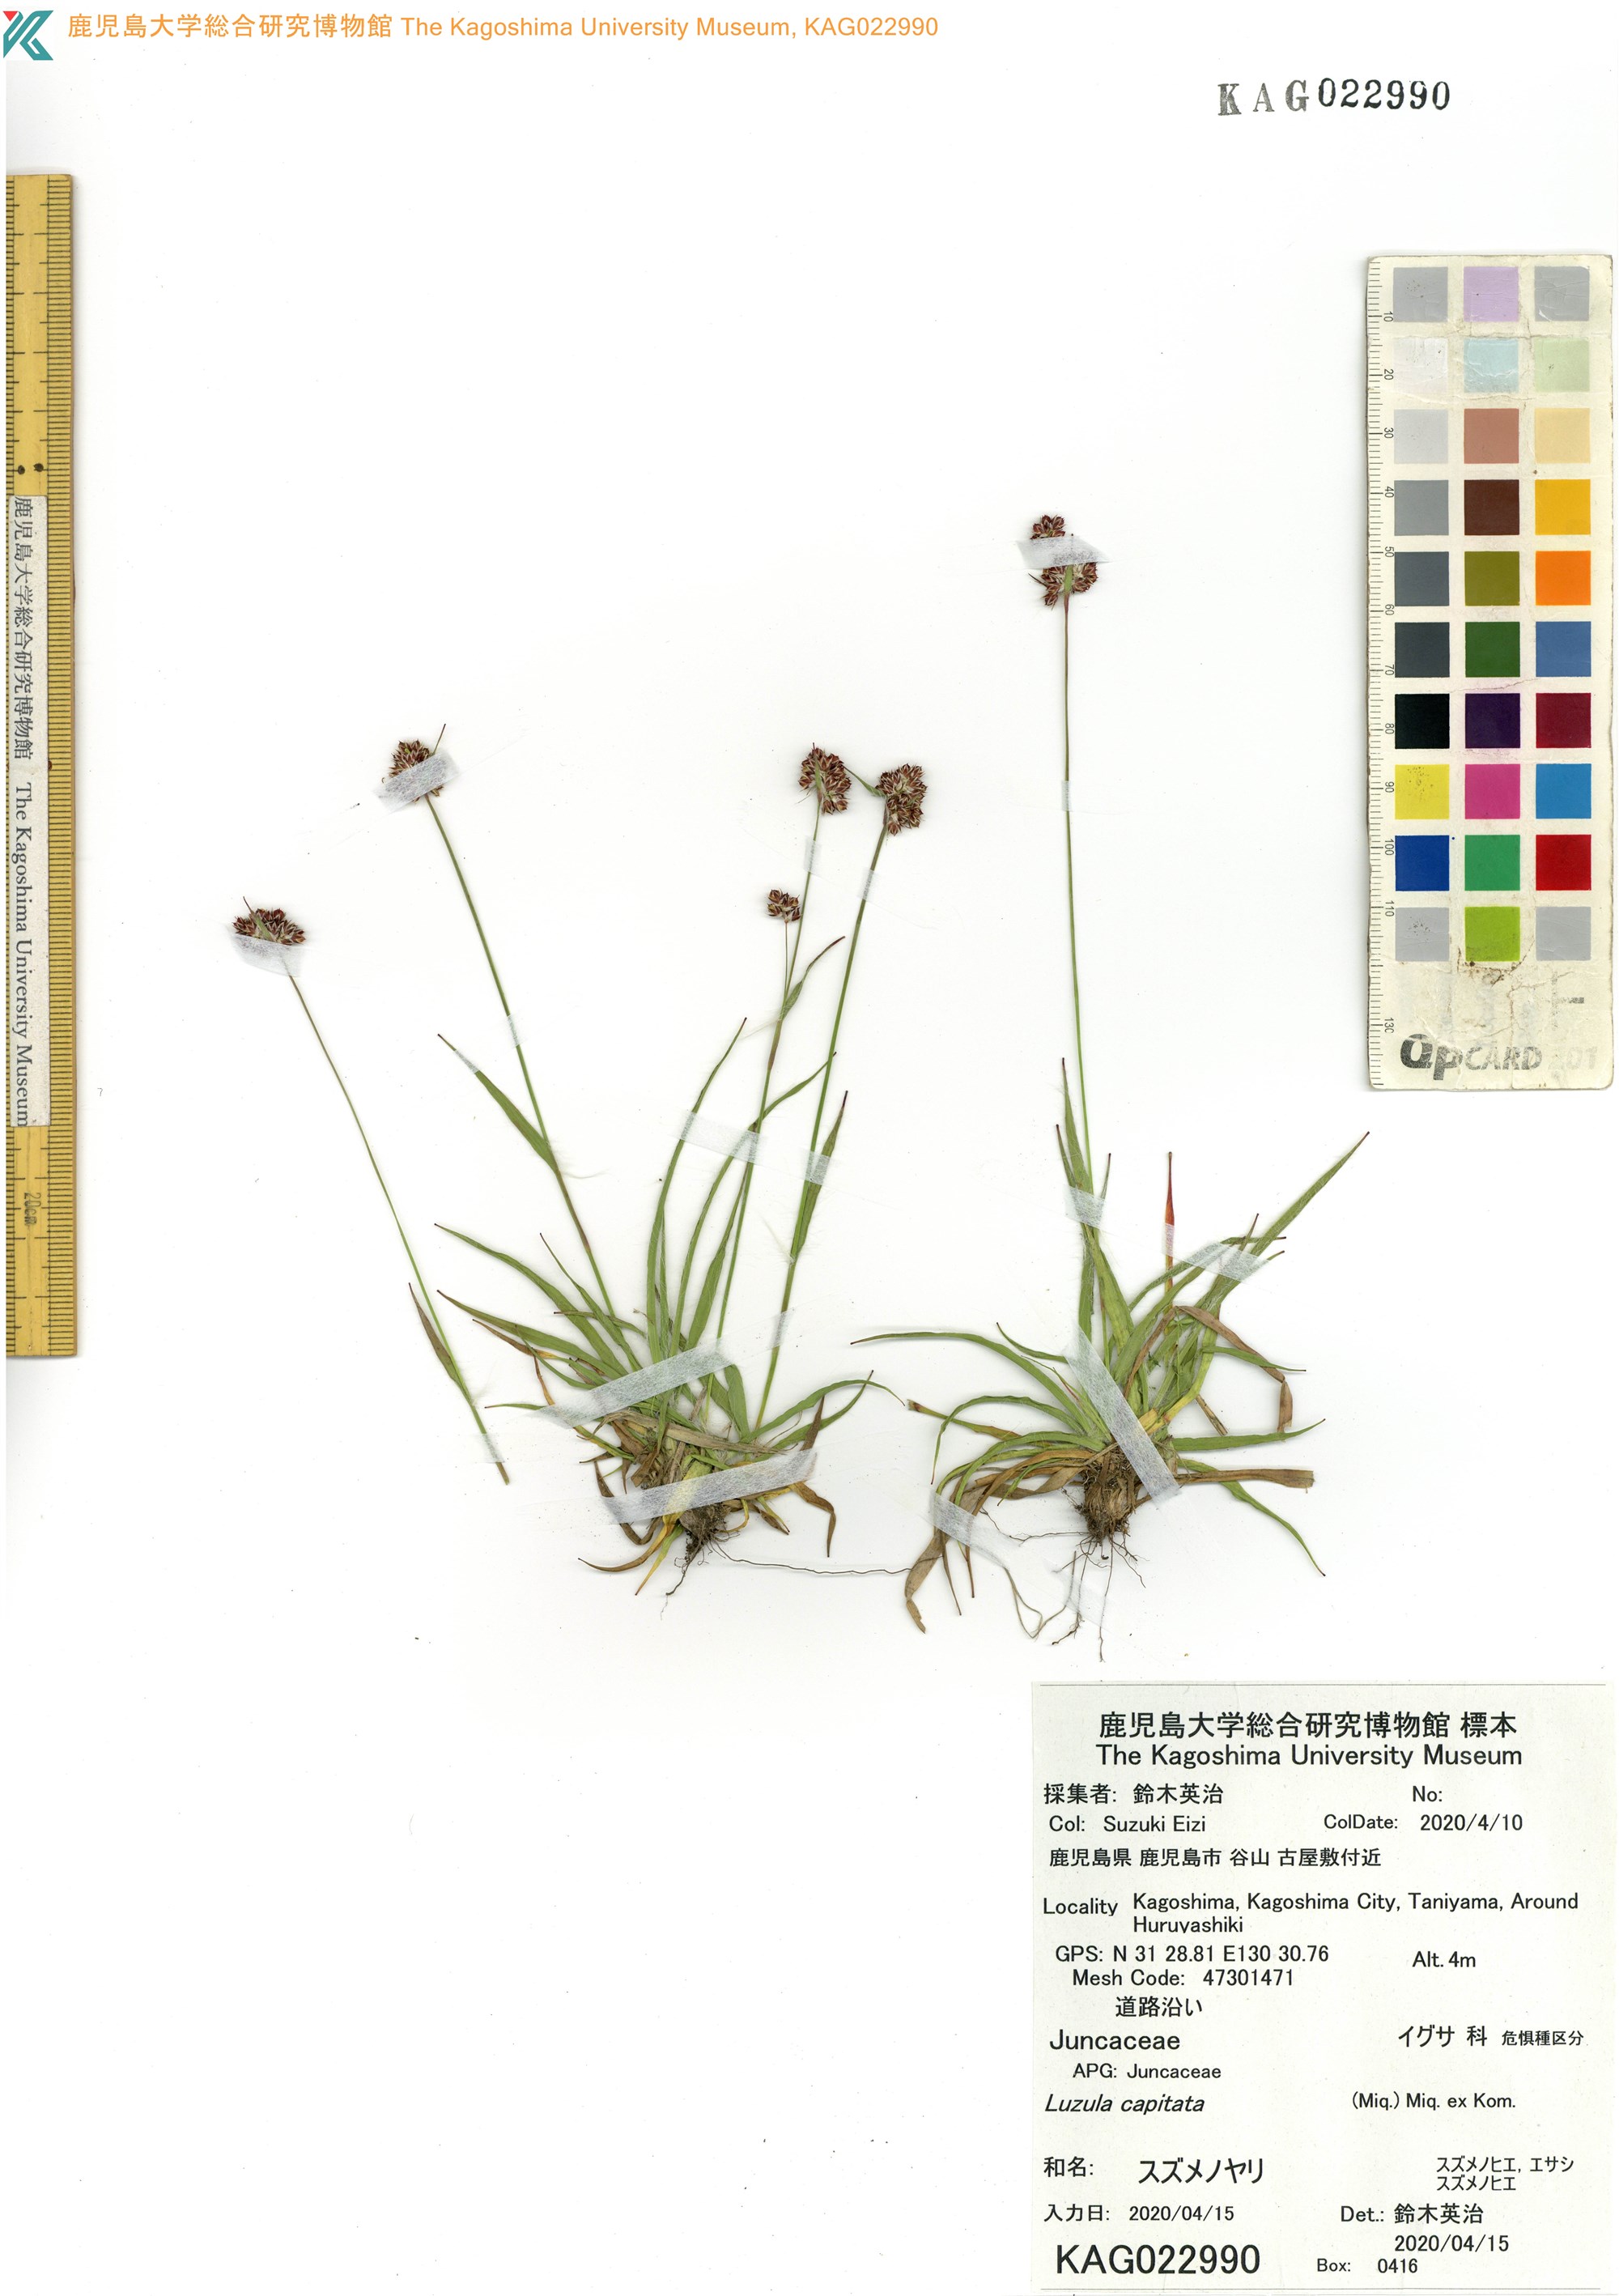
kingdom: Plantae
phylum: Tracheophyta
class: Liliopsida
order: Poales
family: Juncaceae
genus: Luzula
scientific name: Luzula capitata
